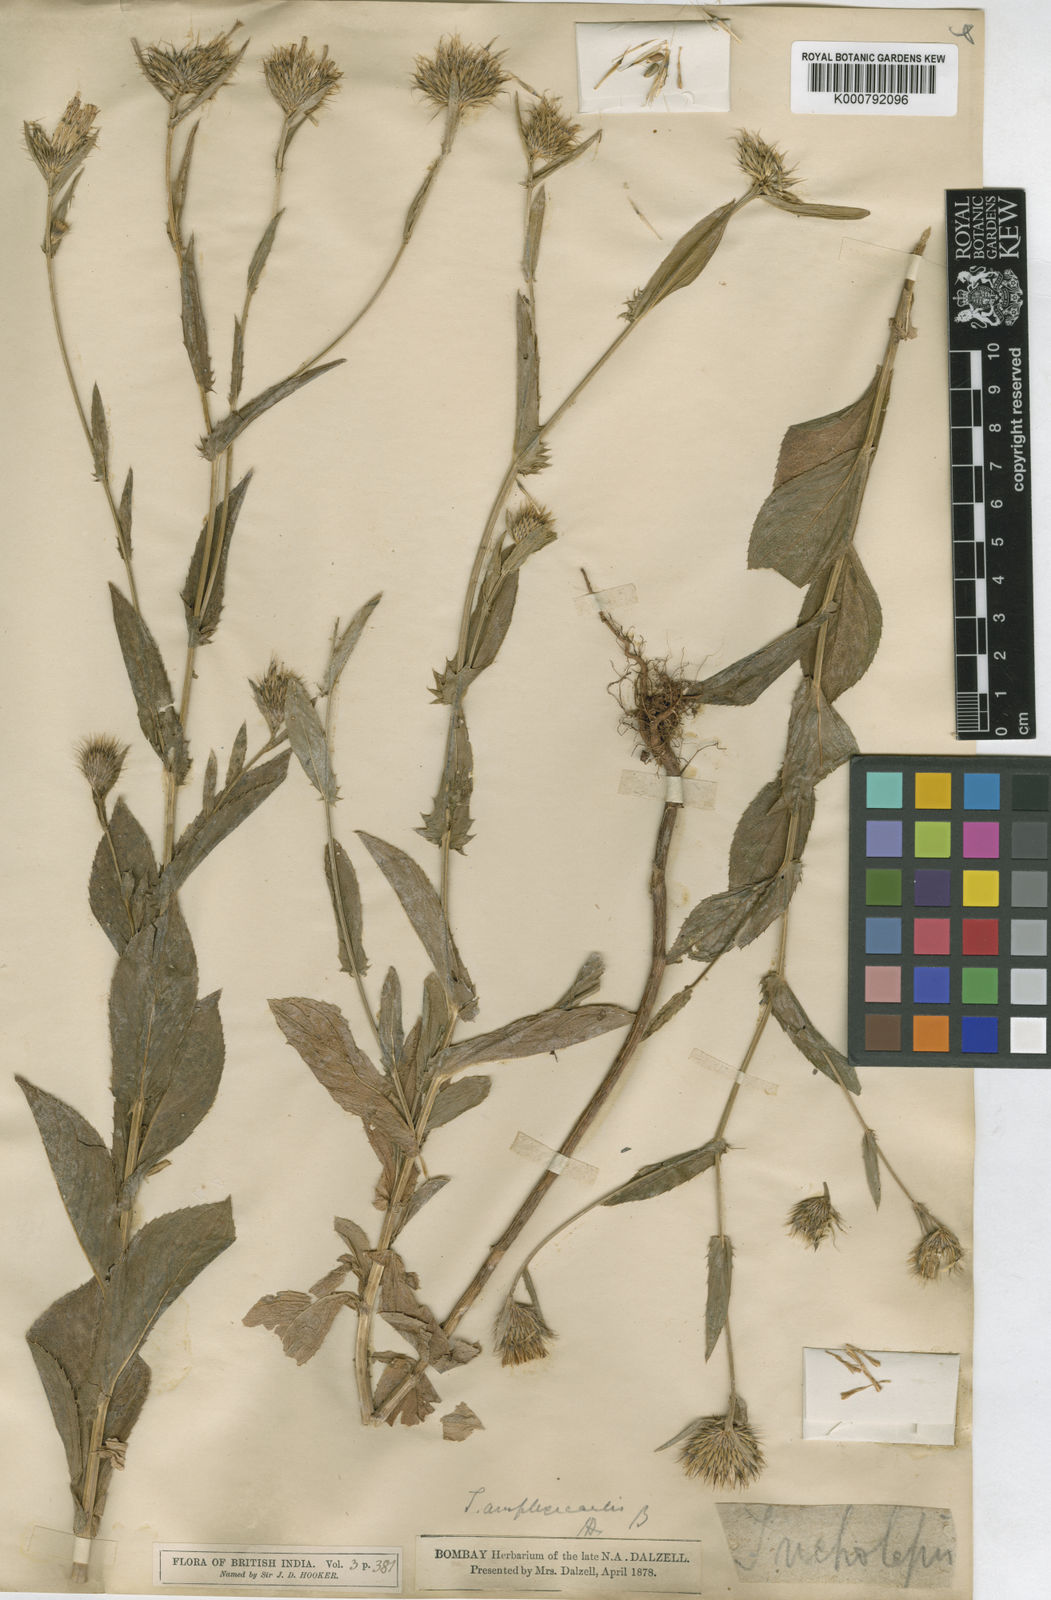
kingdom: Plantae
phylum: Tracheophyta
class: Magnoliopsida
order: Asterales
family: Asteraceae
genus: Tricholepis
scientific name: Tricholepis amplexicaulis
